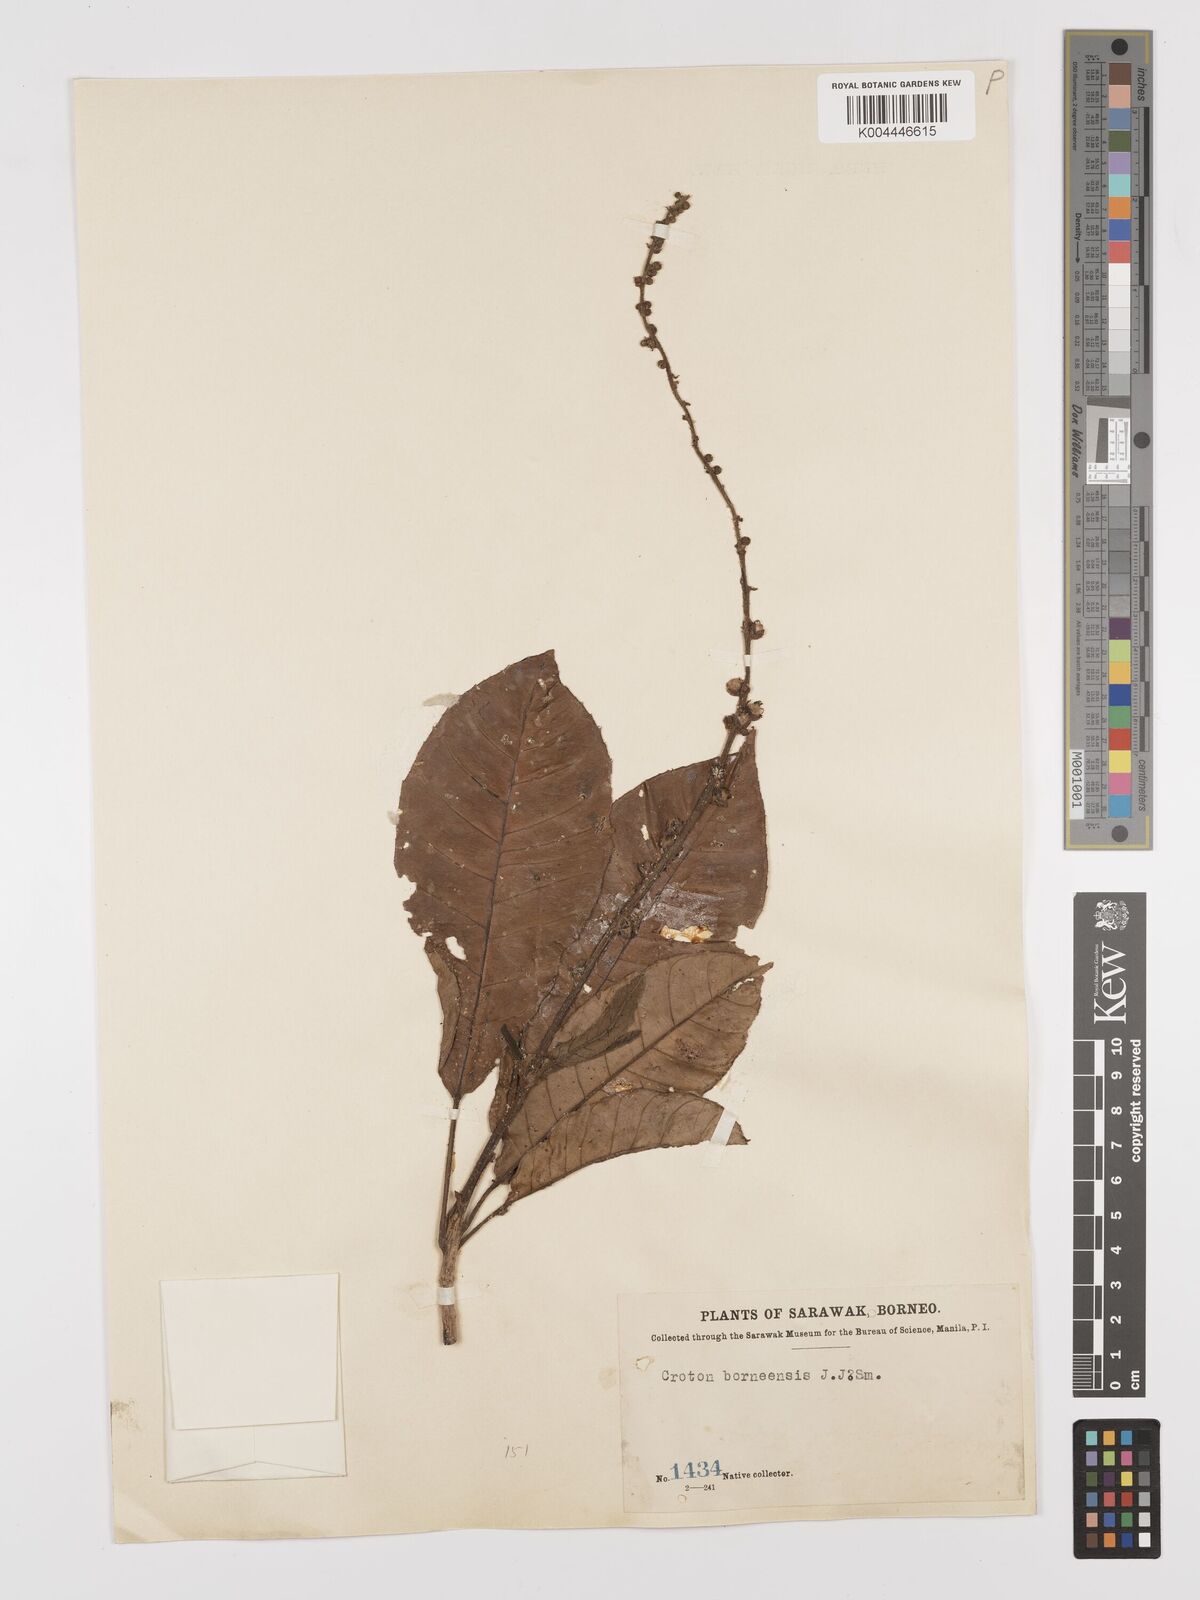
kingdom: Plantae
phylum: Tracheophyta
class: Magnoliopsida
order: Malpighiales
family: Euphorbiaceae
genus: Croton
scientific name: Croton borneensis
